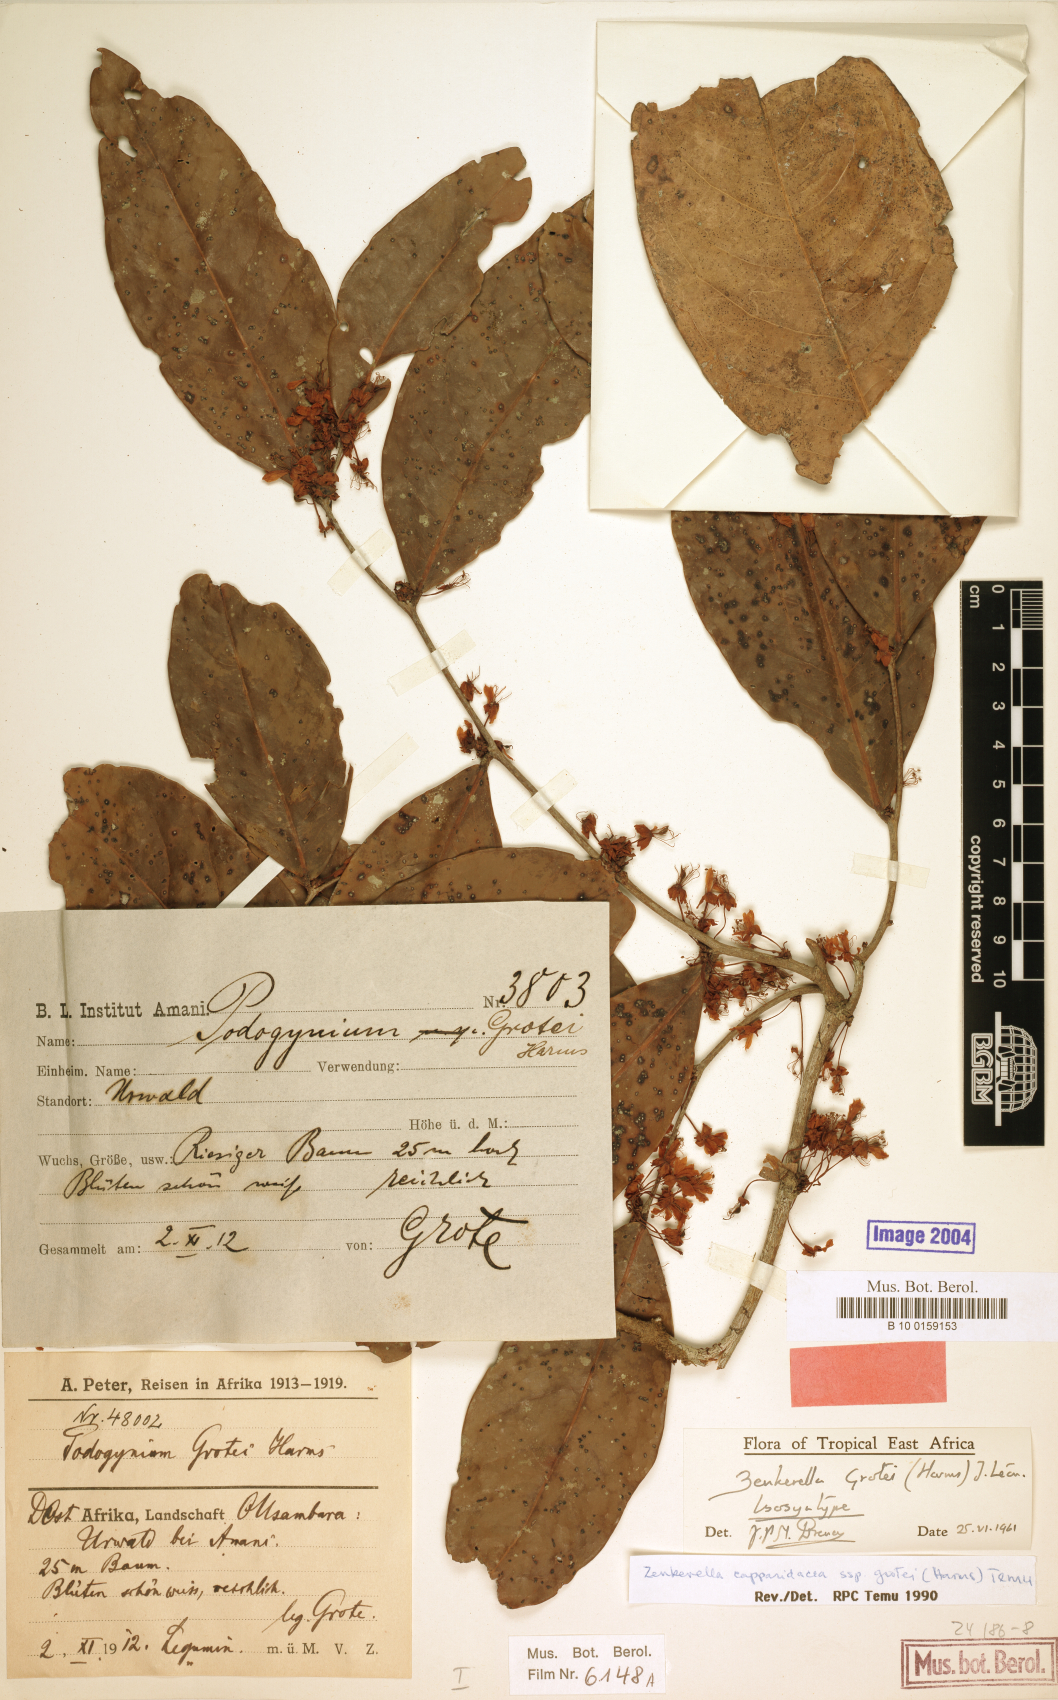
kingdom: Plantae
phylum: Tracheophyta
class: Magnoliopsida
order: Fabales
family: Fabaceae
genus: Zenkerella
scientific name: Zenkerella grotei
